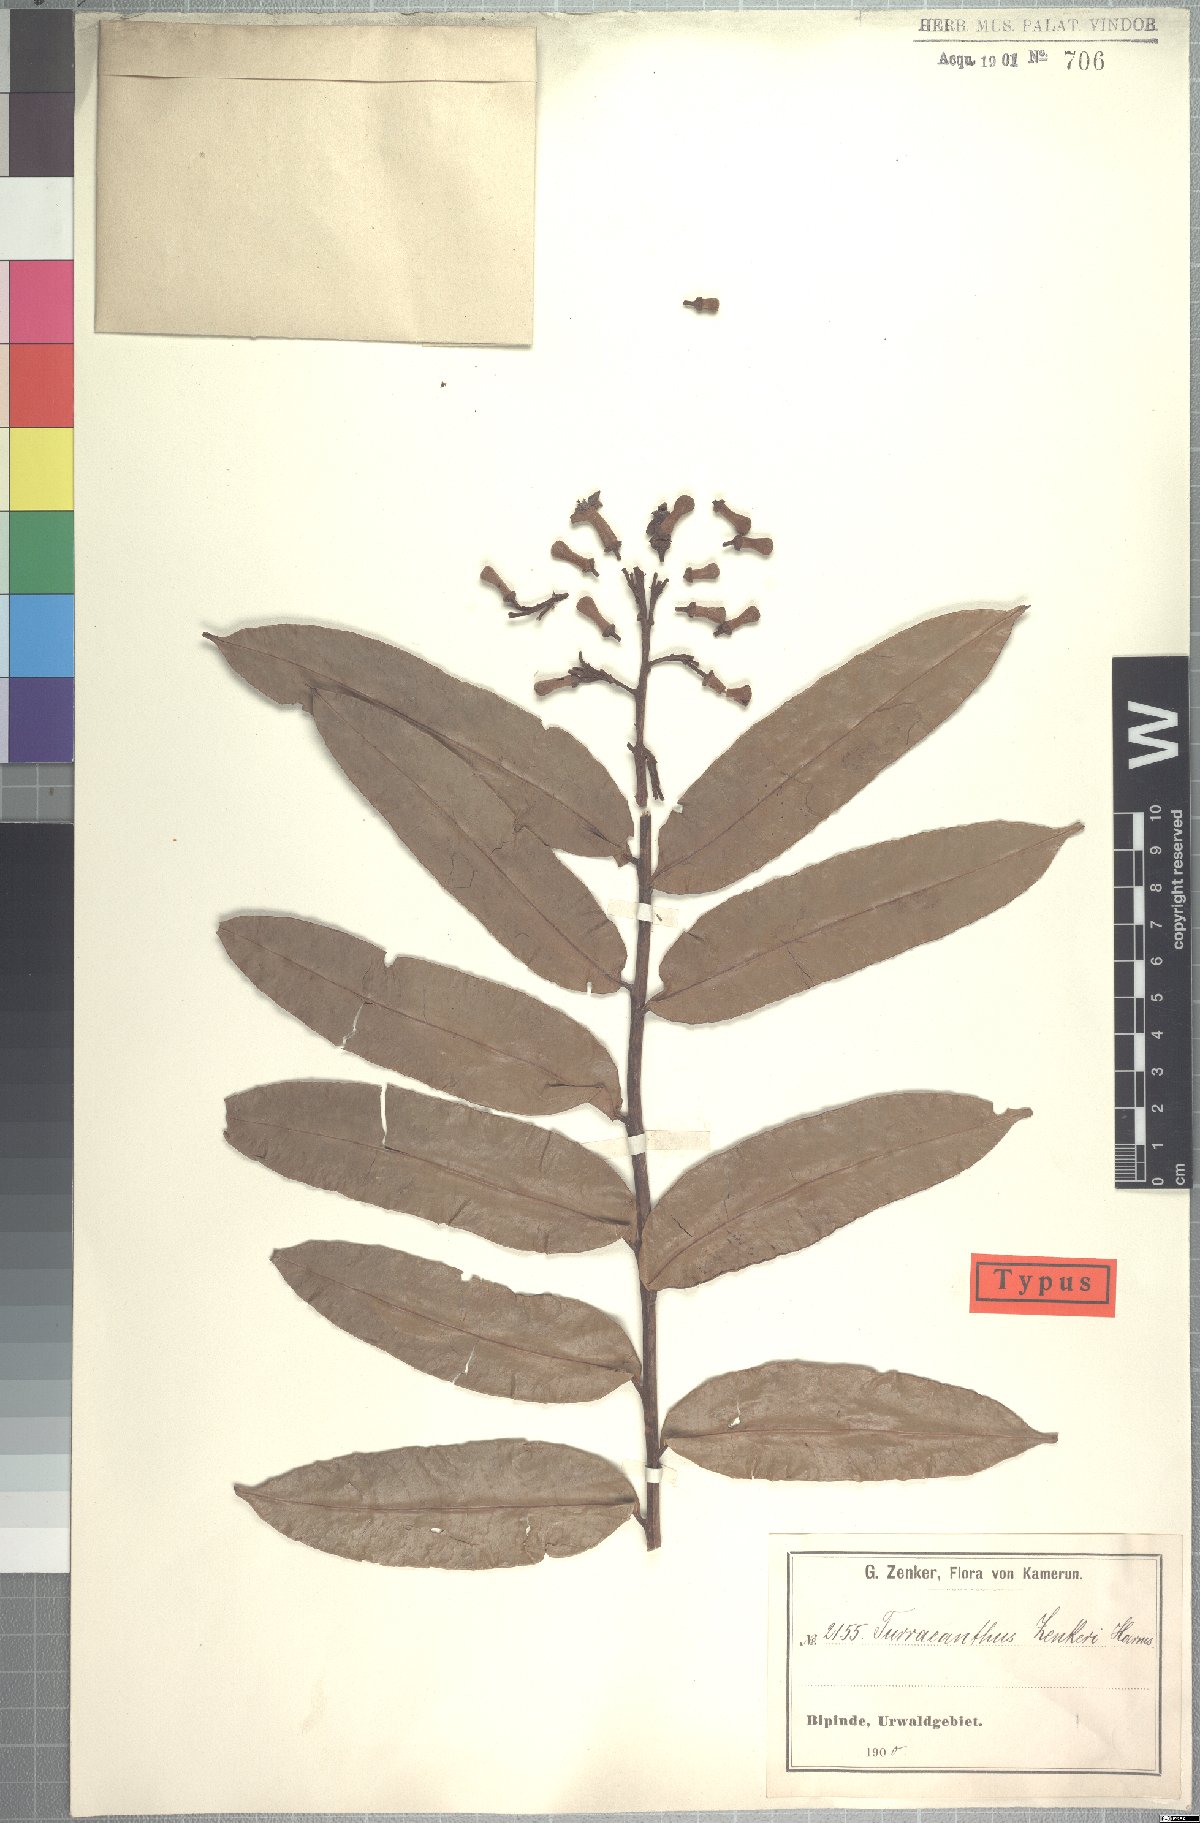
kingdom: Plantae
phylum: Tracheophyta
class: Magnoliopsida
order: Sapindales
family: Meliaceae
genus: Turraeanthus
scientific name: Turraeanthus africanus
